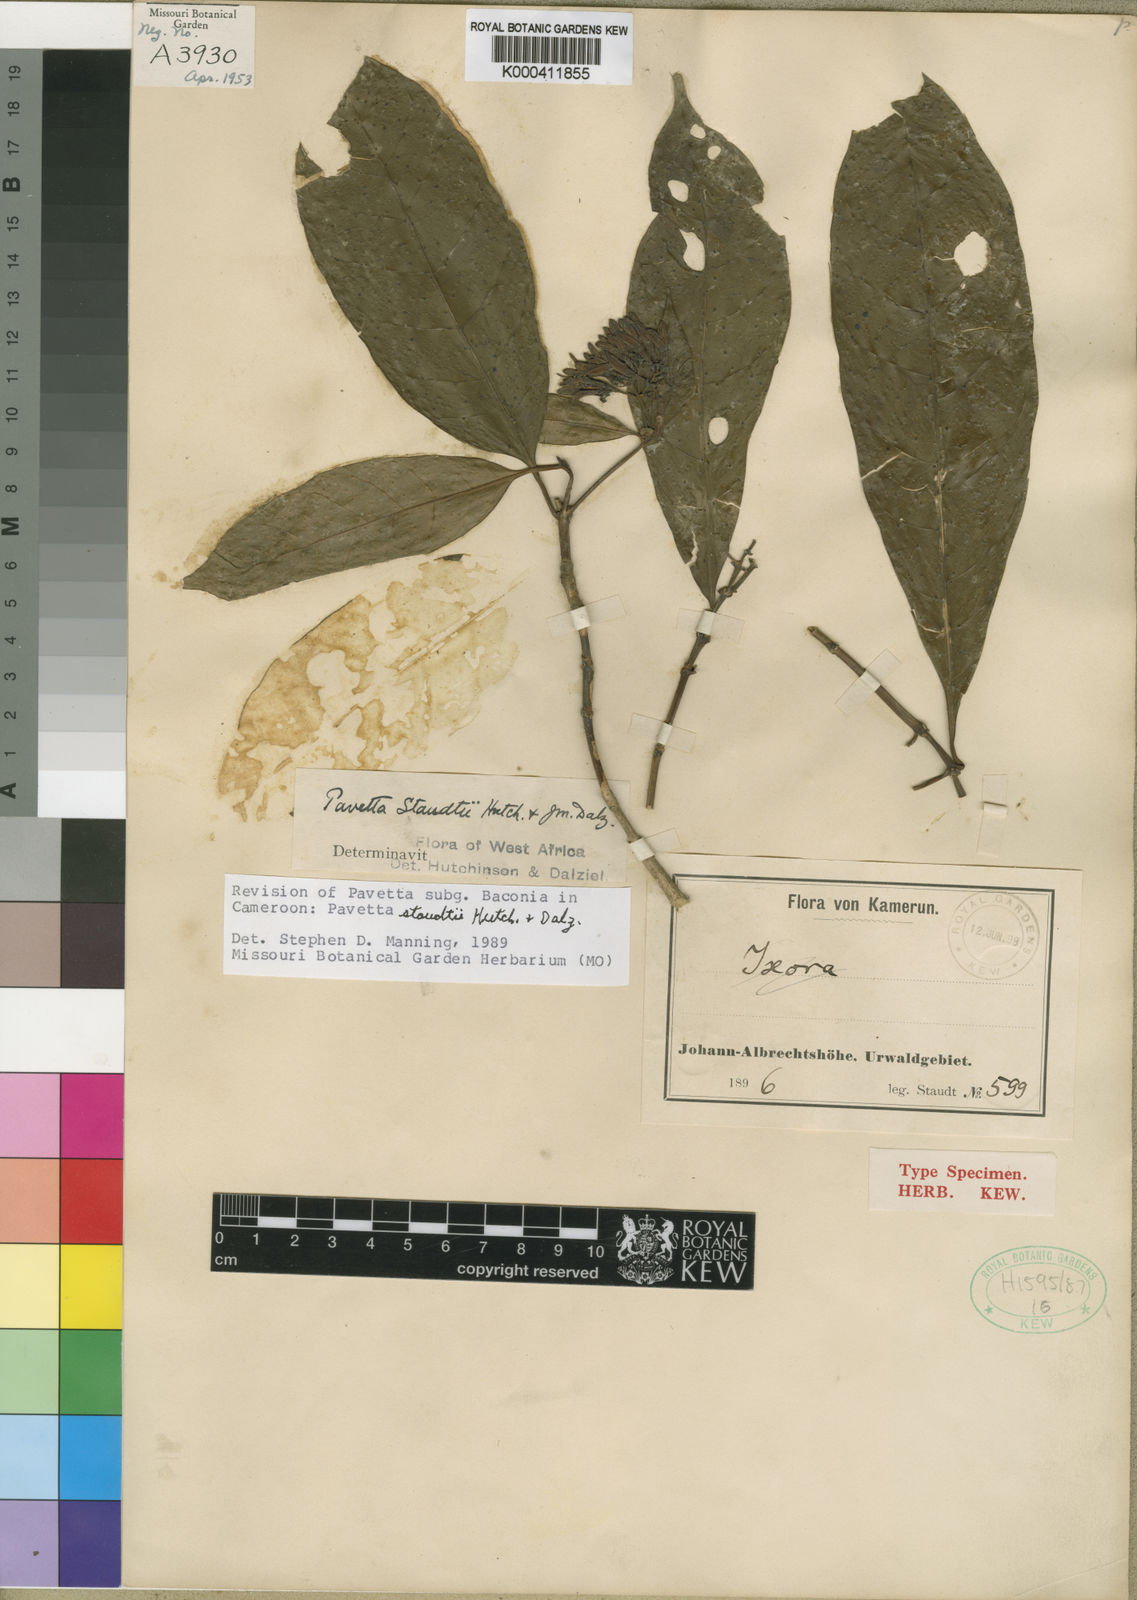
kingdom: Plantae
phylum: Tracheophyta
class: Magnoliopsida
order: Gentianales
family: Rubiaceae
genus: Pavetta
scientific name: Pavetta staudtii
